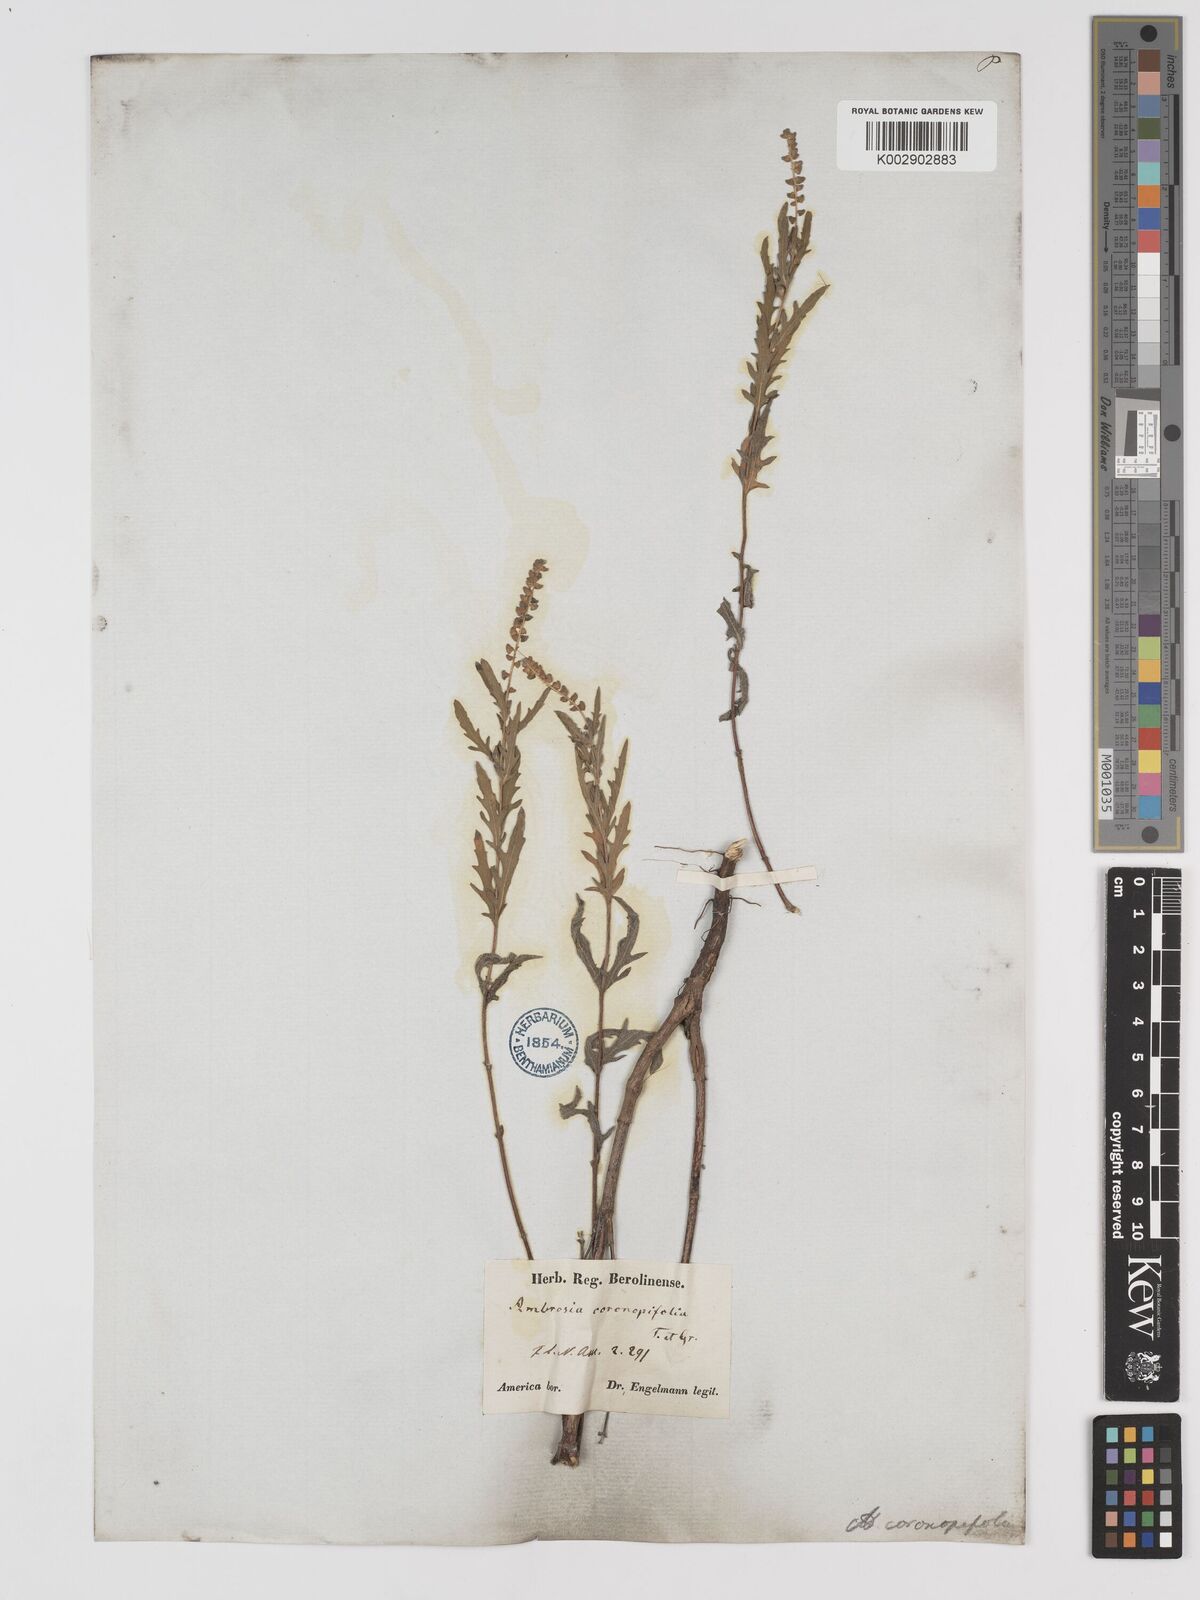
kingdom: Plantae
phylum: Tracheophyta
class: Magnoliopsida
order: Asterales
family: Asteraceae
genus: Ambrosia
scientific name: Ambrosia psilostachya
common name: Perennial ragweed
